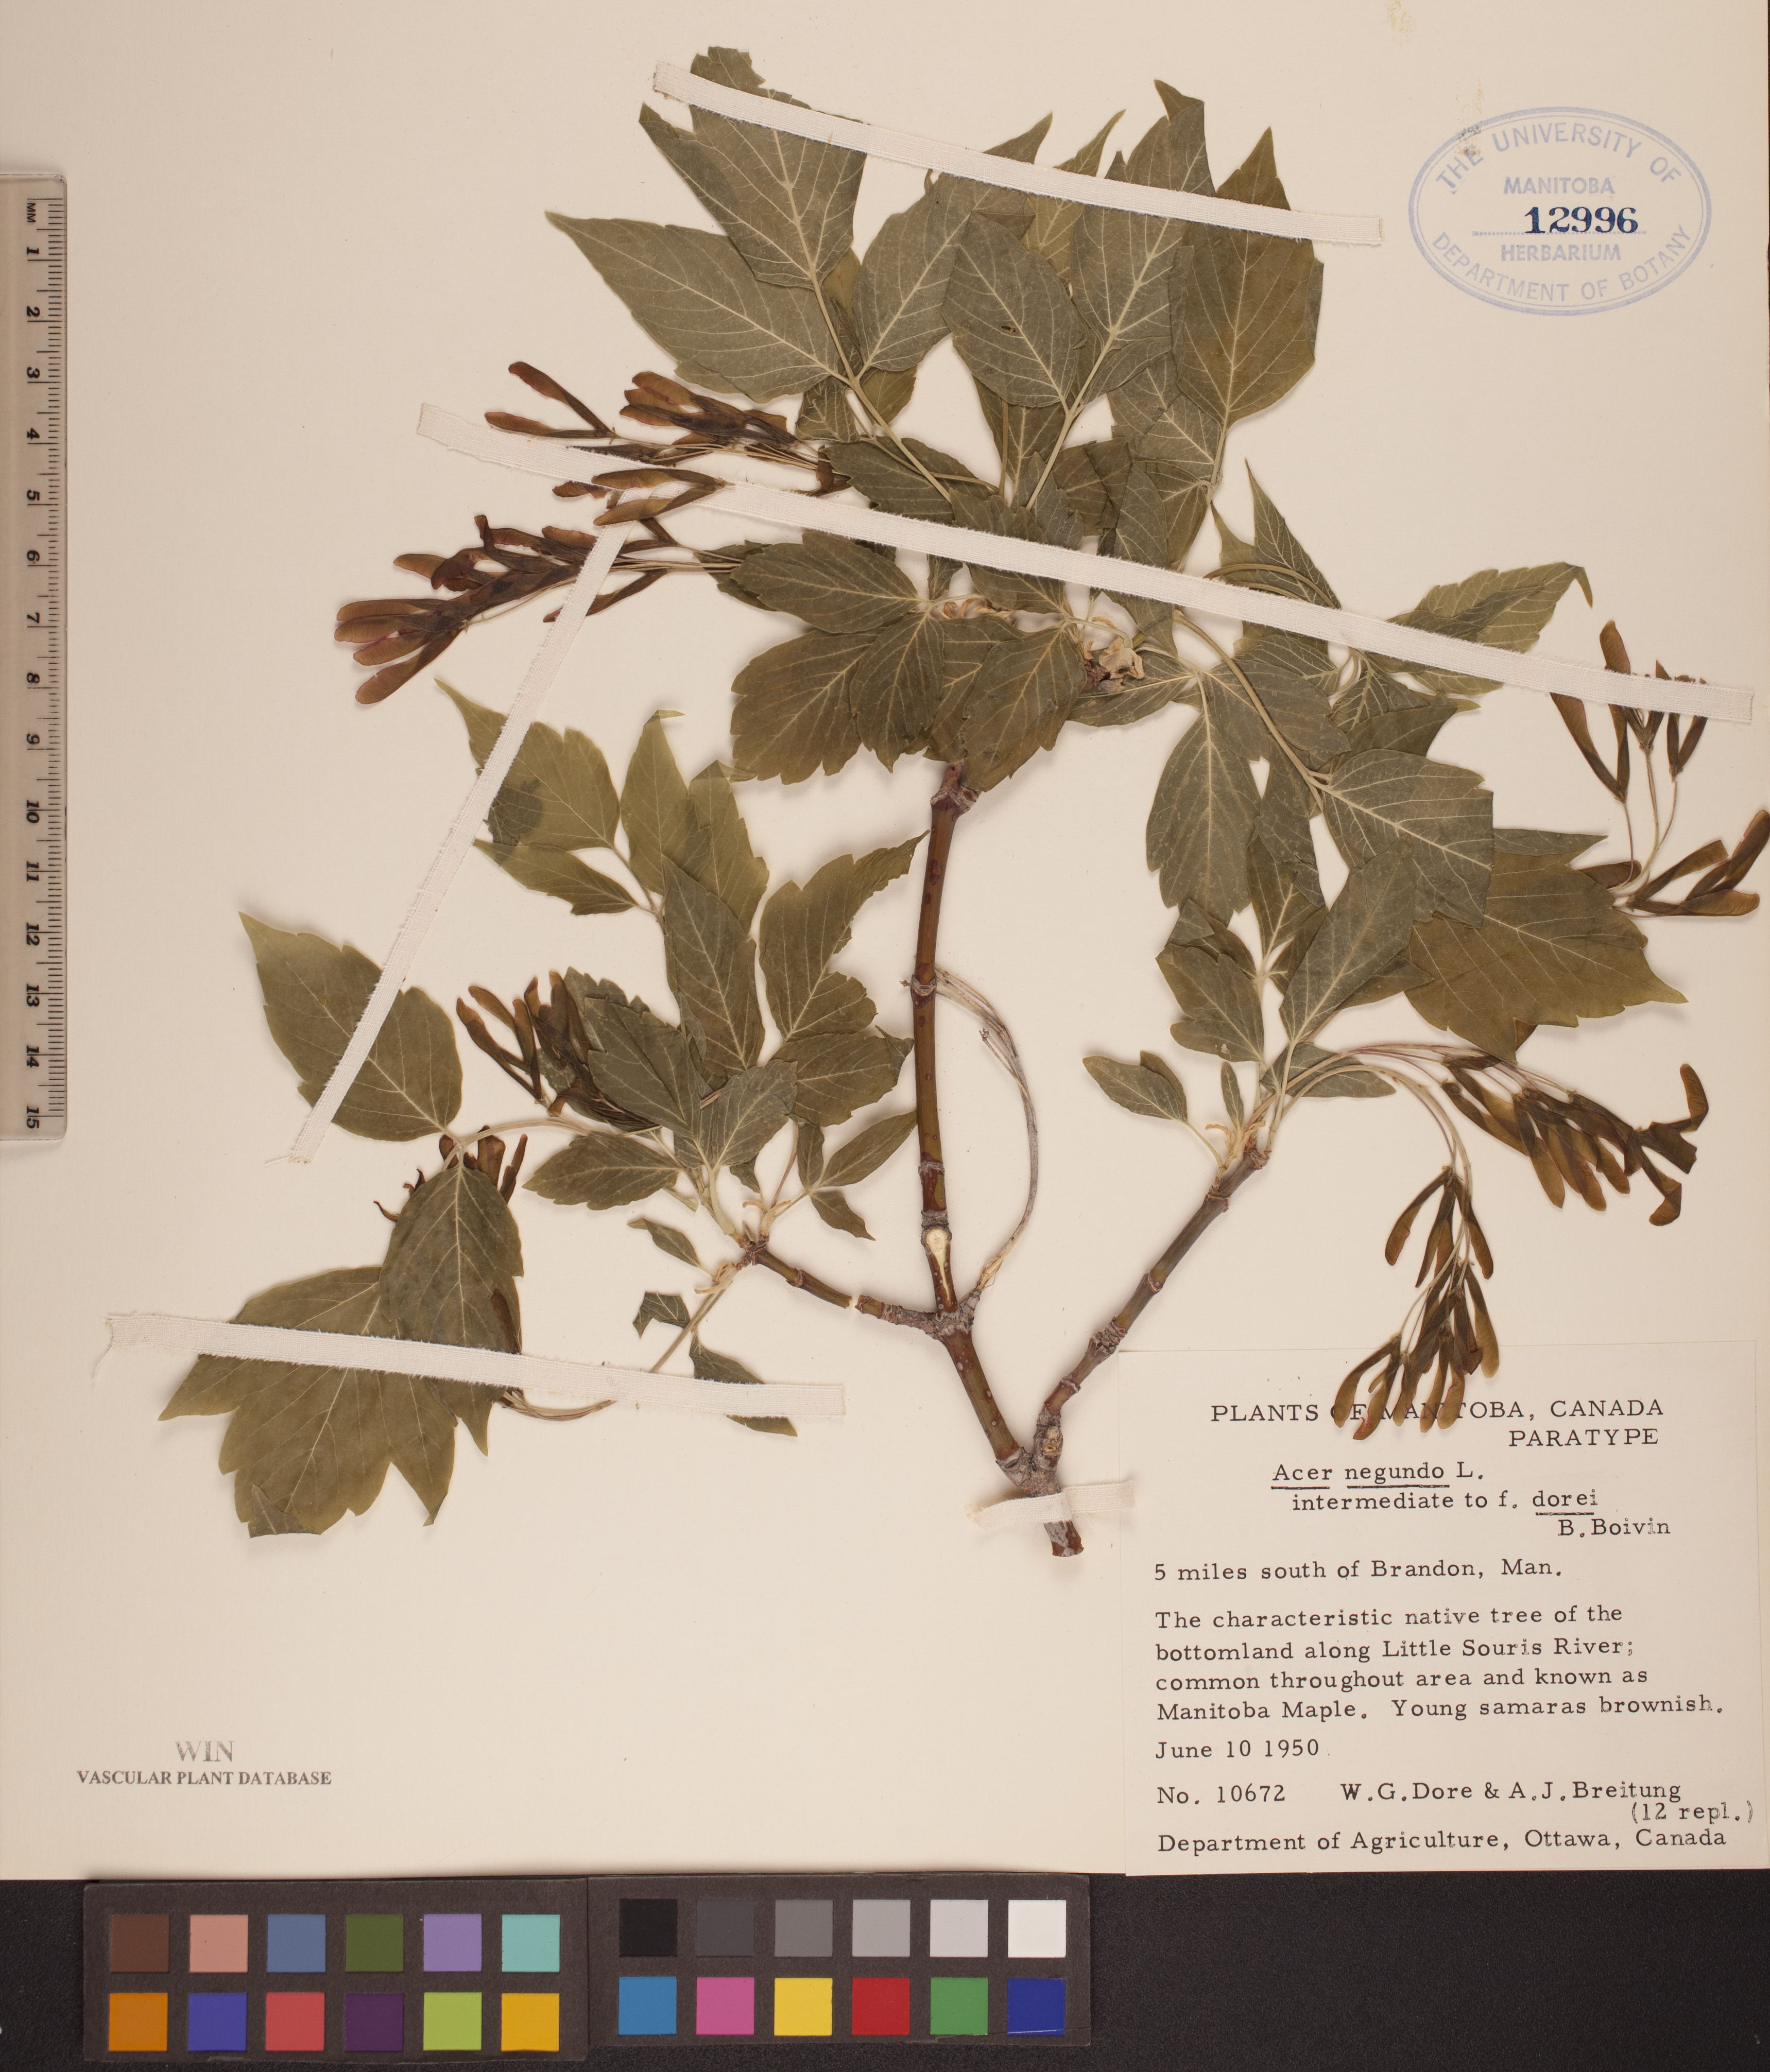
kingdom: Plantae
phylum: Tracheophyta
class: Magnoliopsida
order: Sapindales
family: Sapindaceae
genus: Acer
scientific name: Acer negundo
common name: Ashleaf maple
